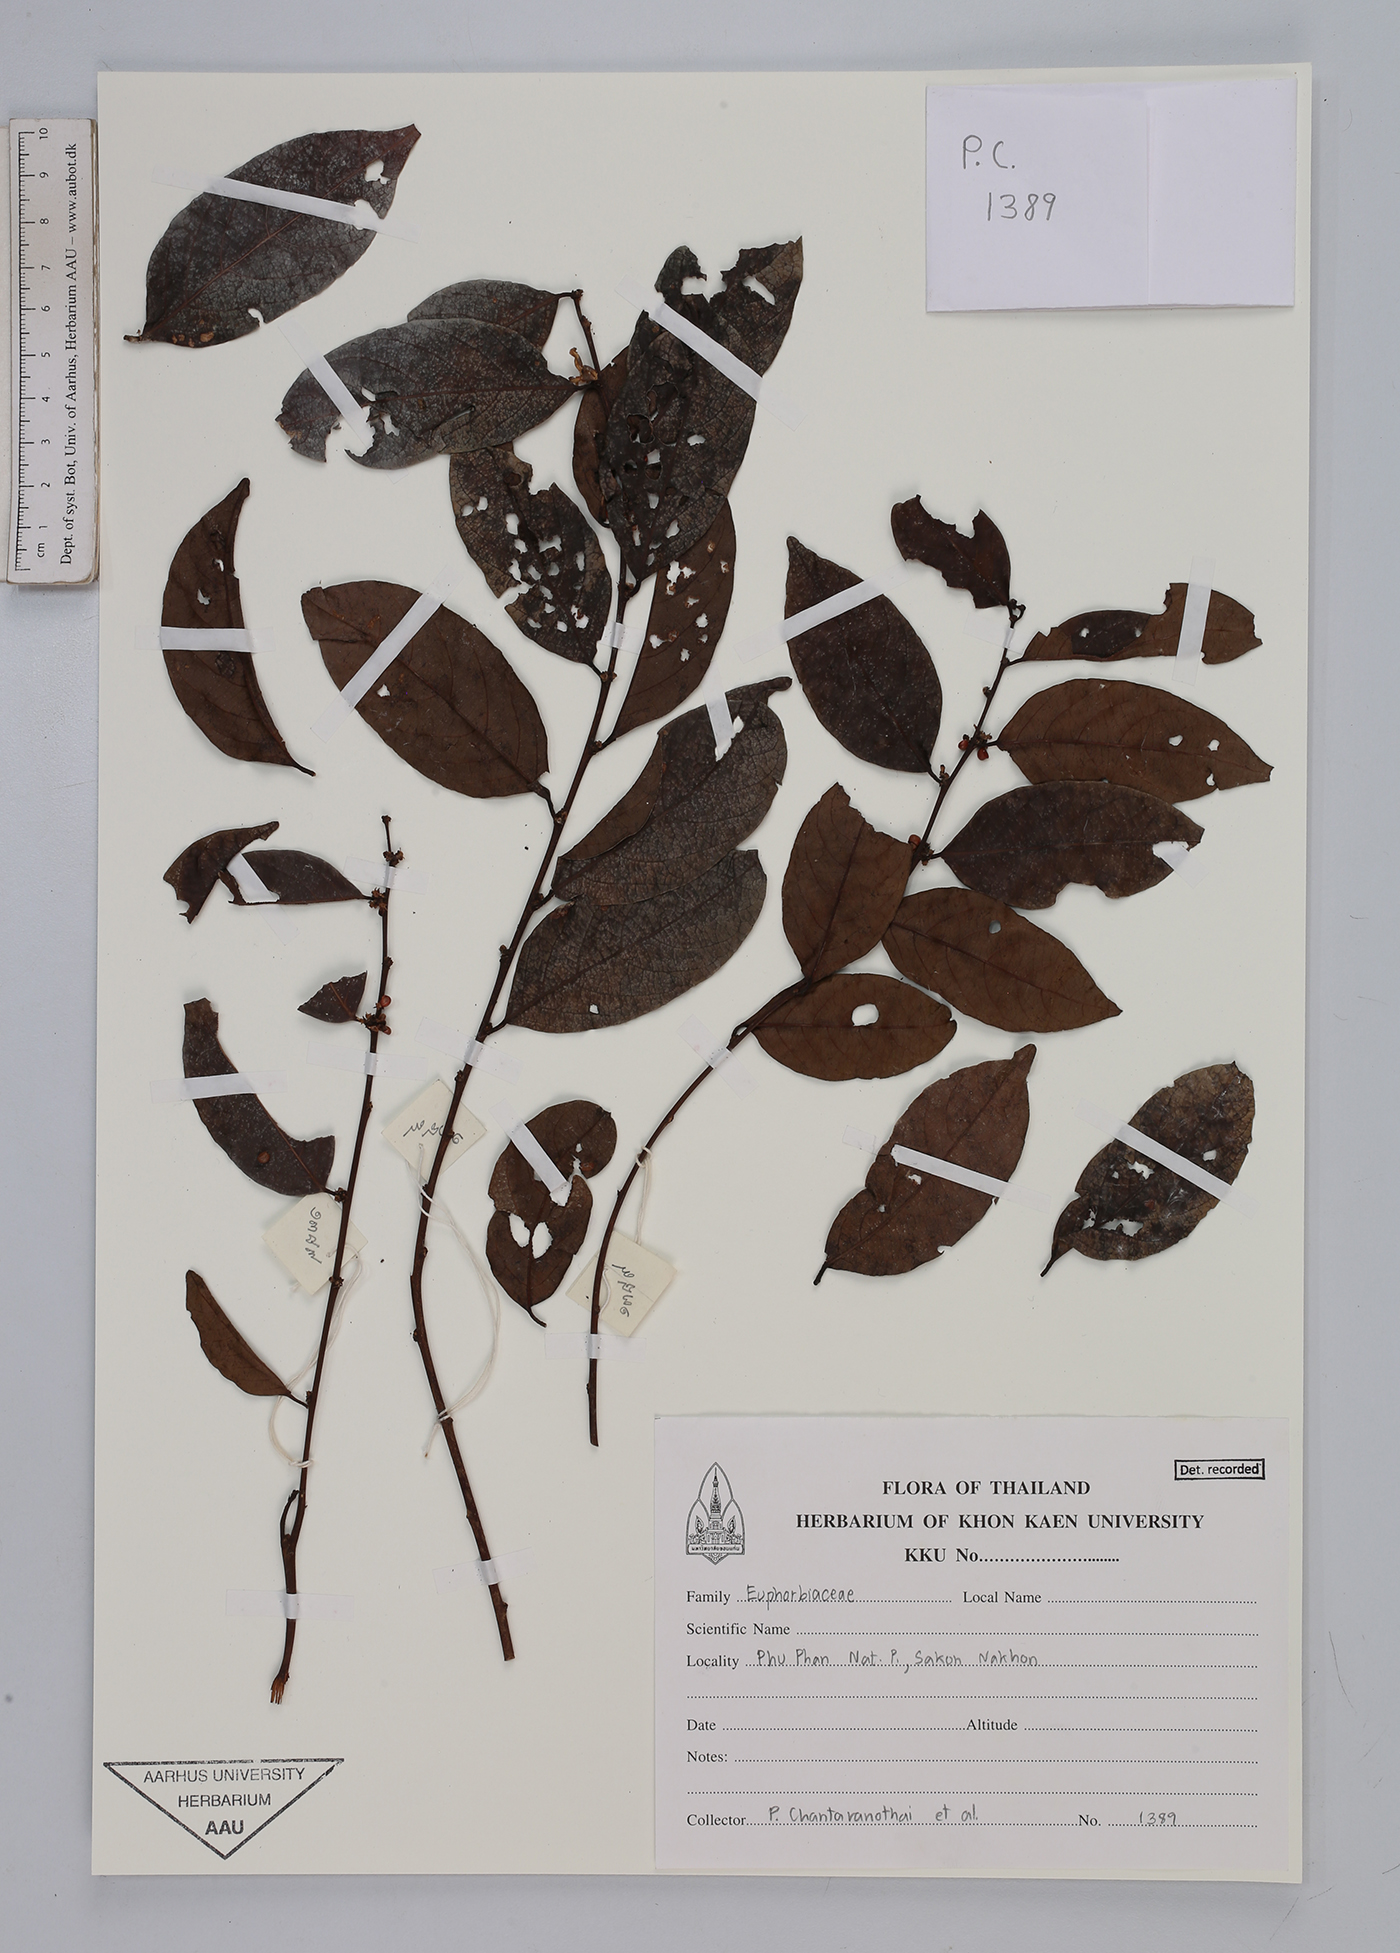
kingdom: Plantae
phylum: Tracheophyta
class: Magnoliopsida
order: Malpighiales
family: Euphorbiaceae
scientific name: Euphorbiaceae
